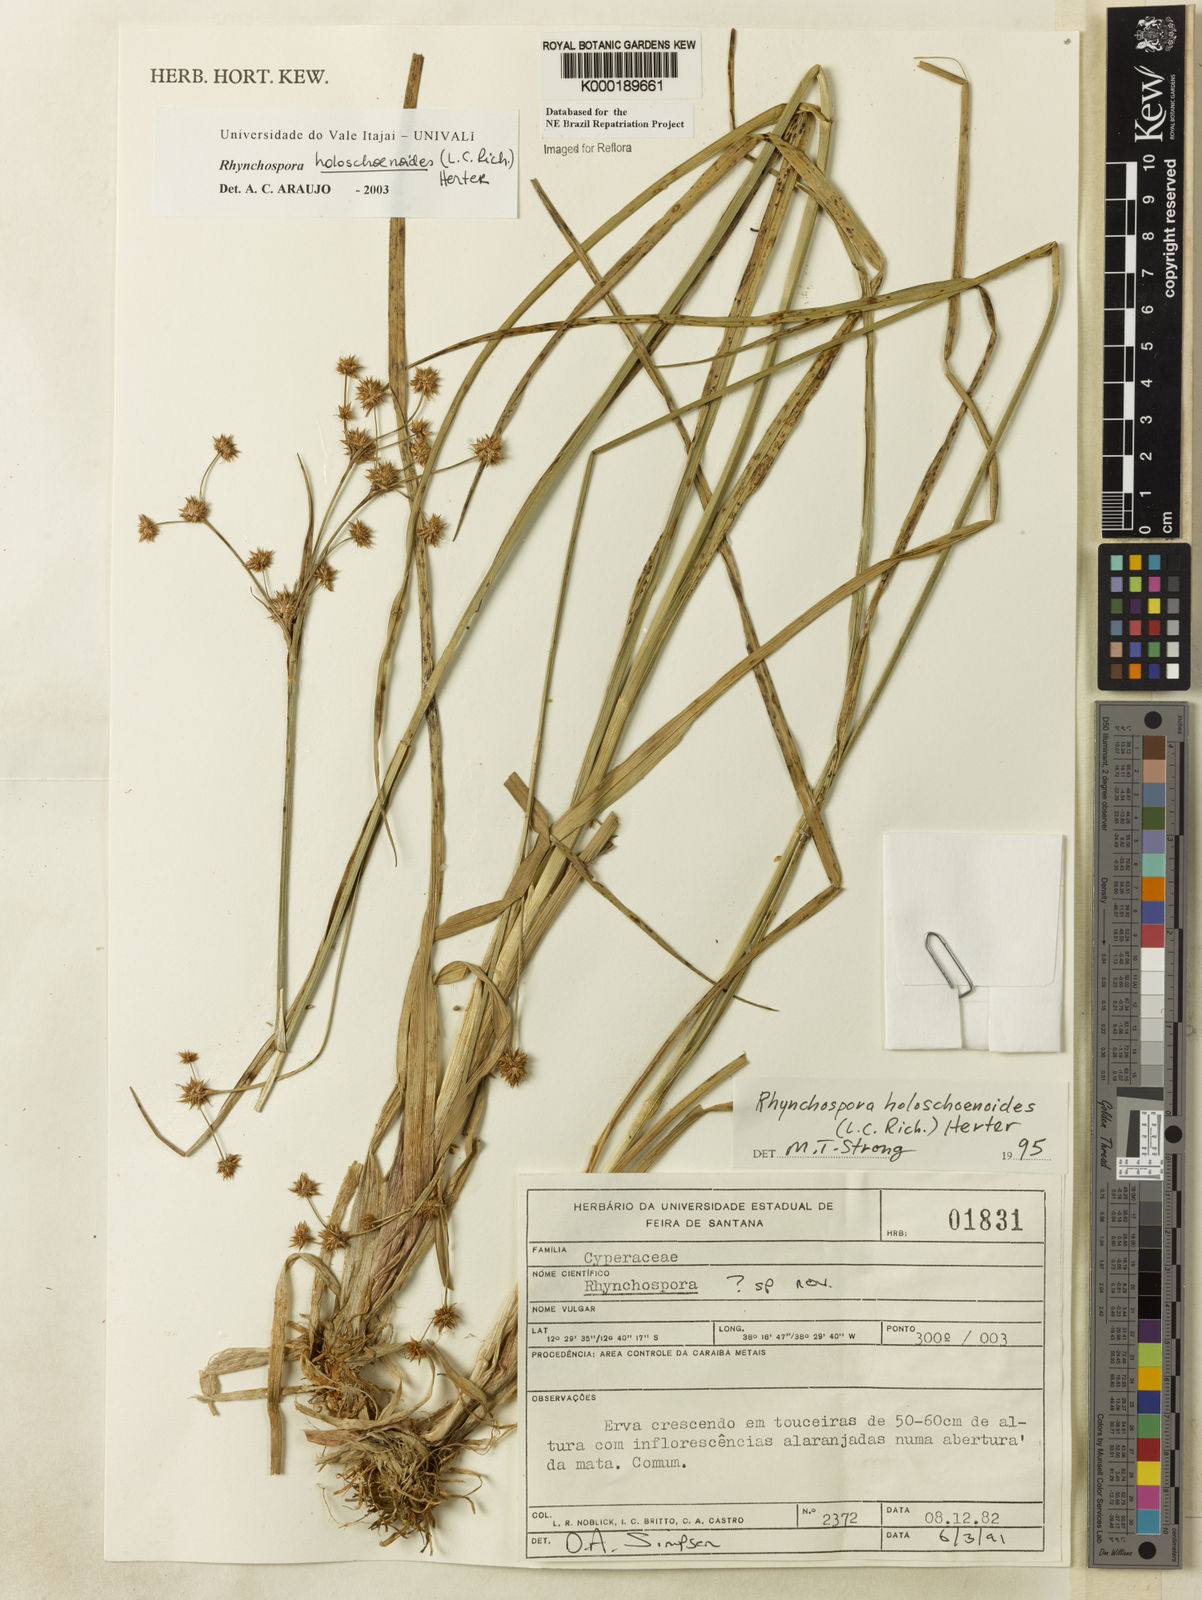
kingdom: Plantae
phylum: Tracheophyta
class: Liliopsida
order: Poales
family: Cyperaceae
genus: Rhynchospora
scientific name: Rhynchospora holoschoenoides
